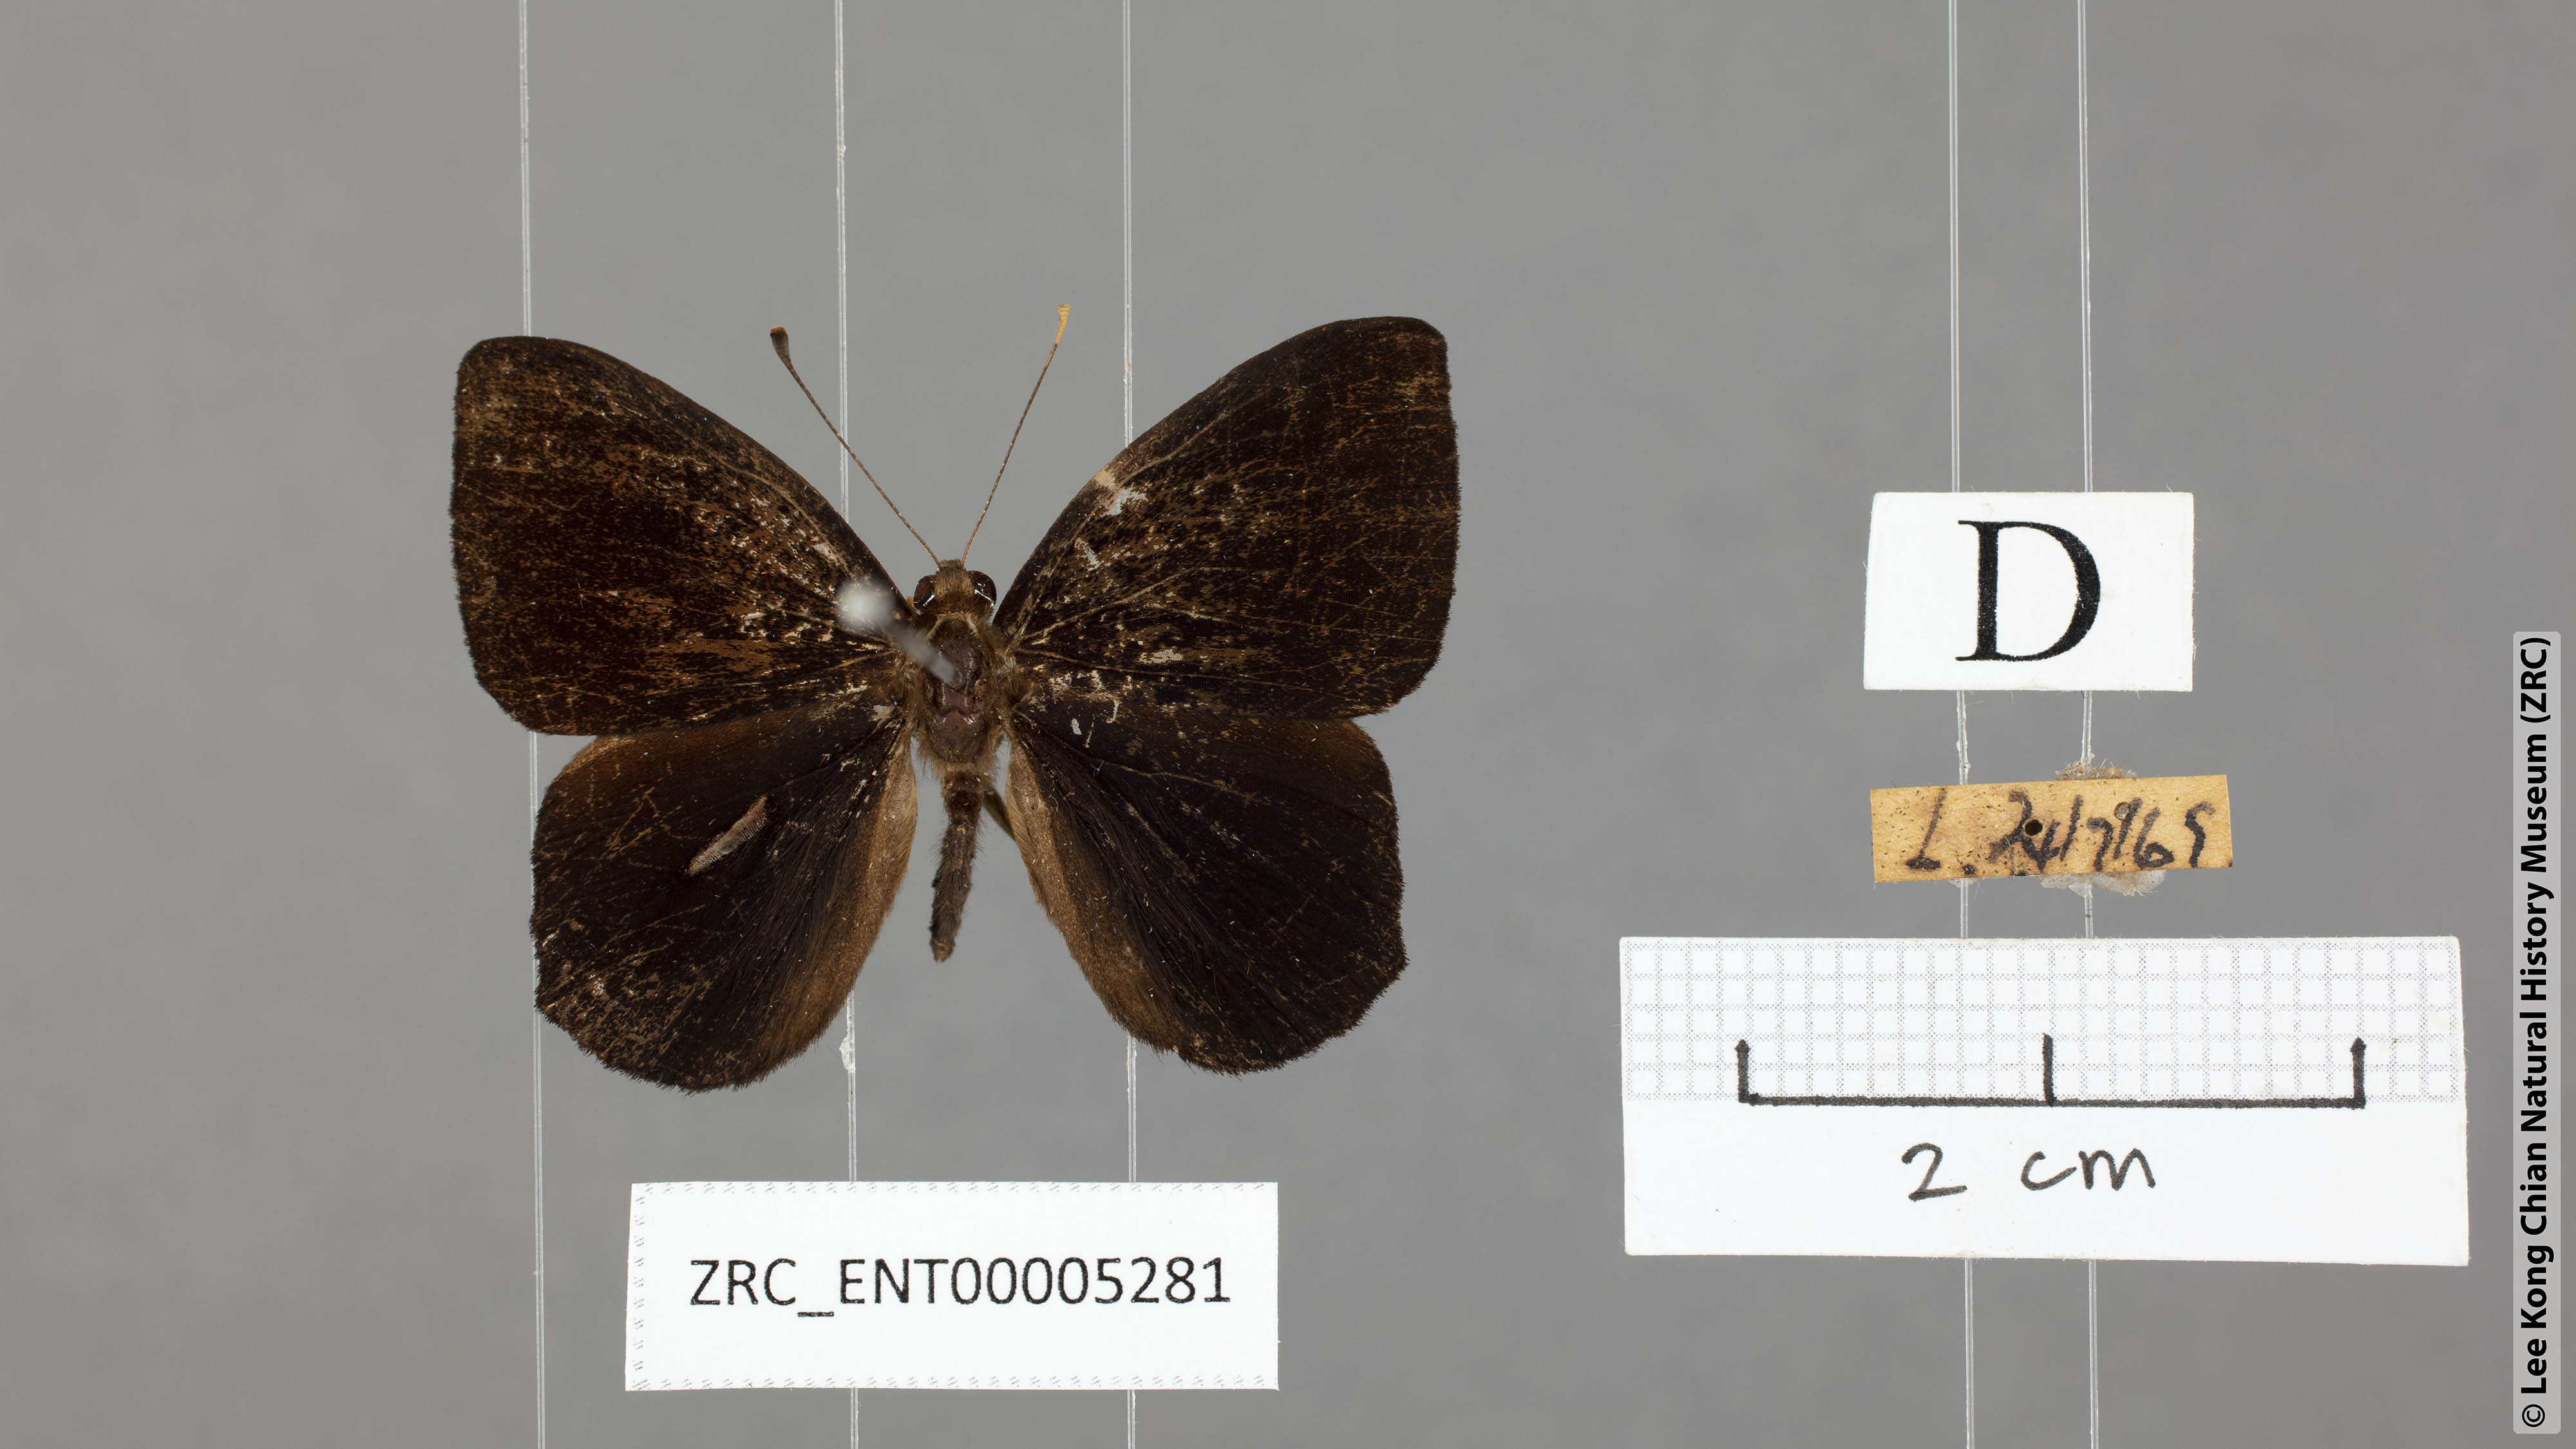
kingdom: Animalia
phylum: Arthropoda
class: Insecta
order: Lepidoptera
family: Riodinidae
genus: Laxita
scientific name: Laxita thuisto
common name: Lesser harlequin
